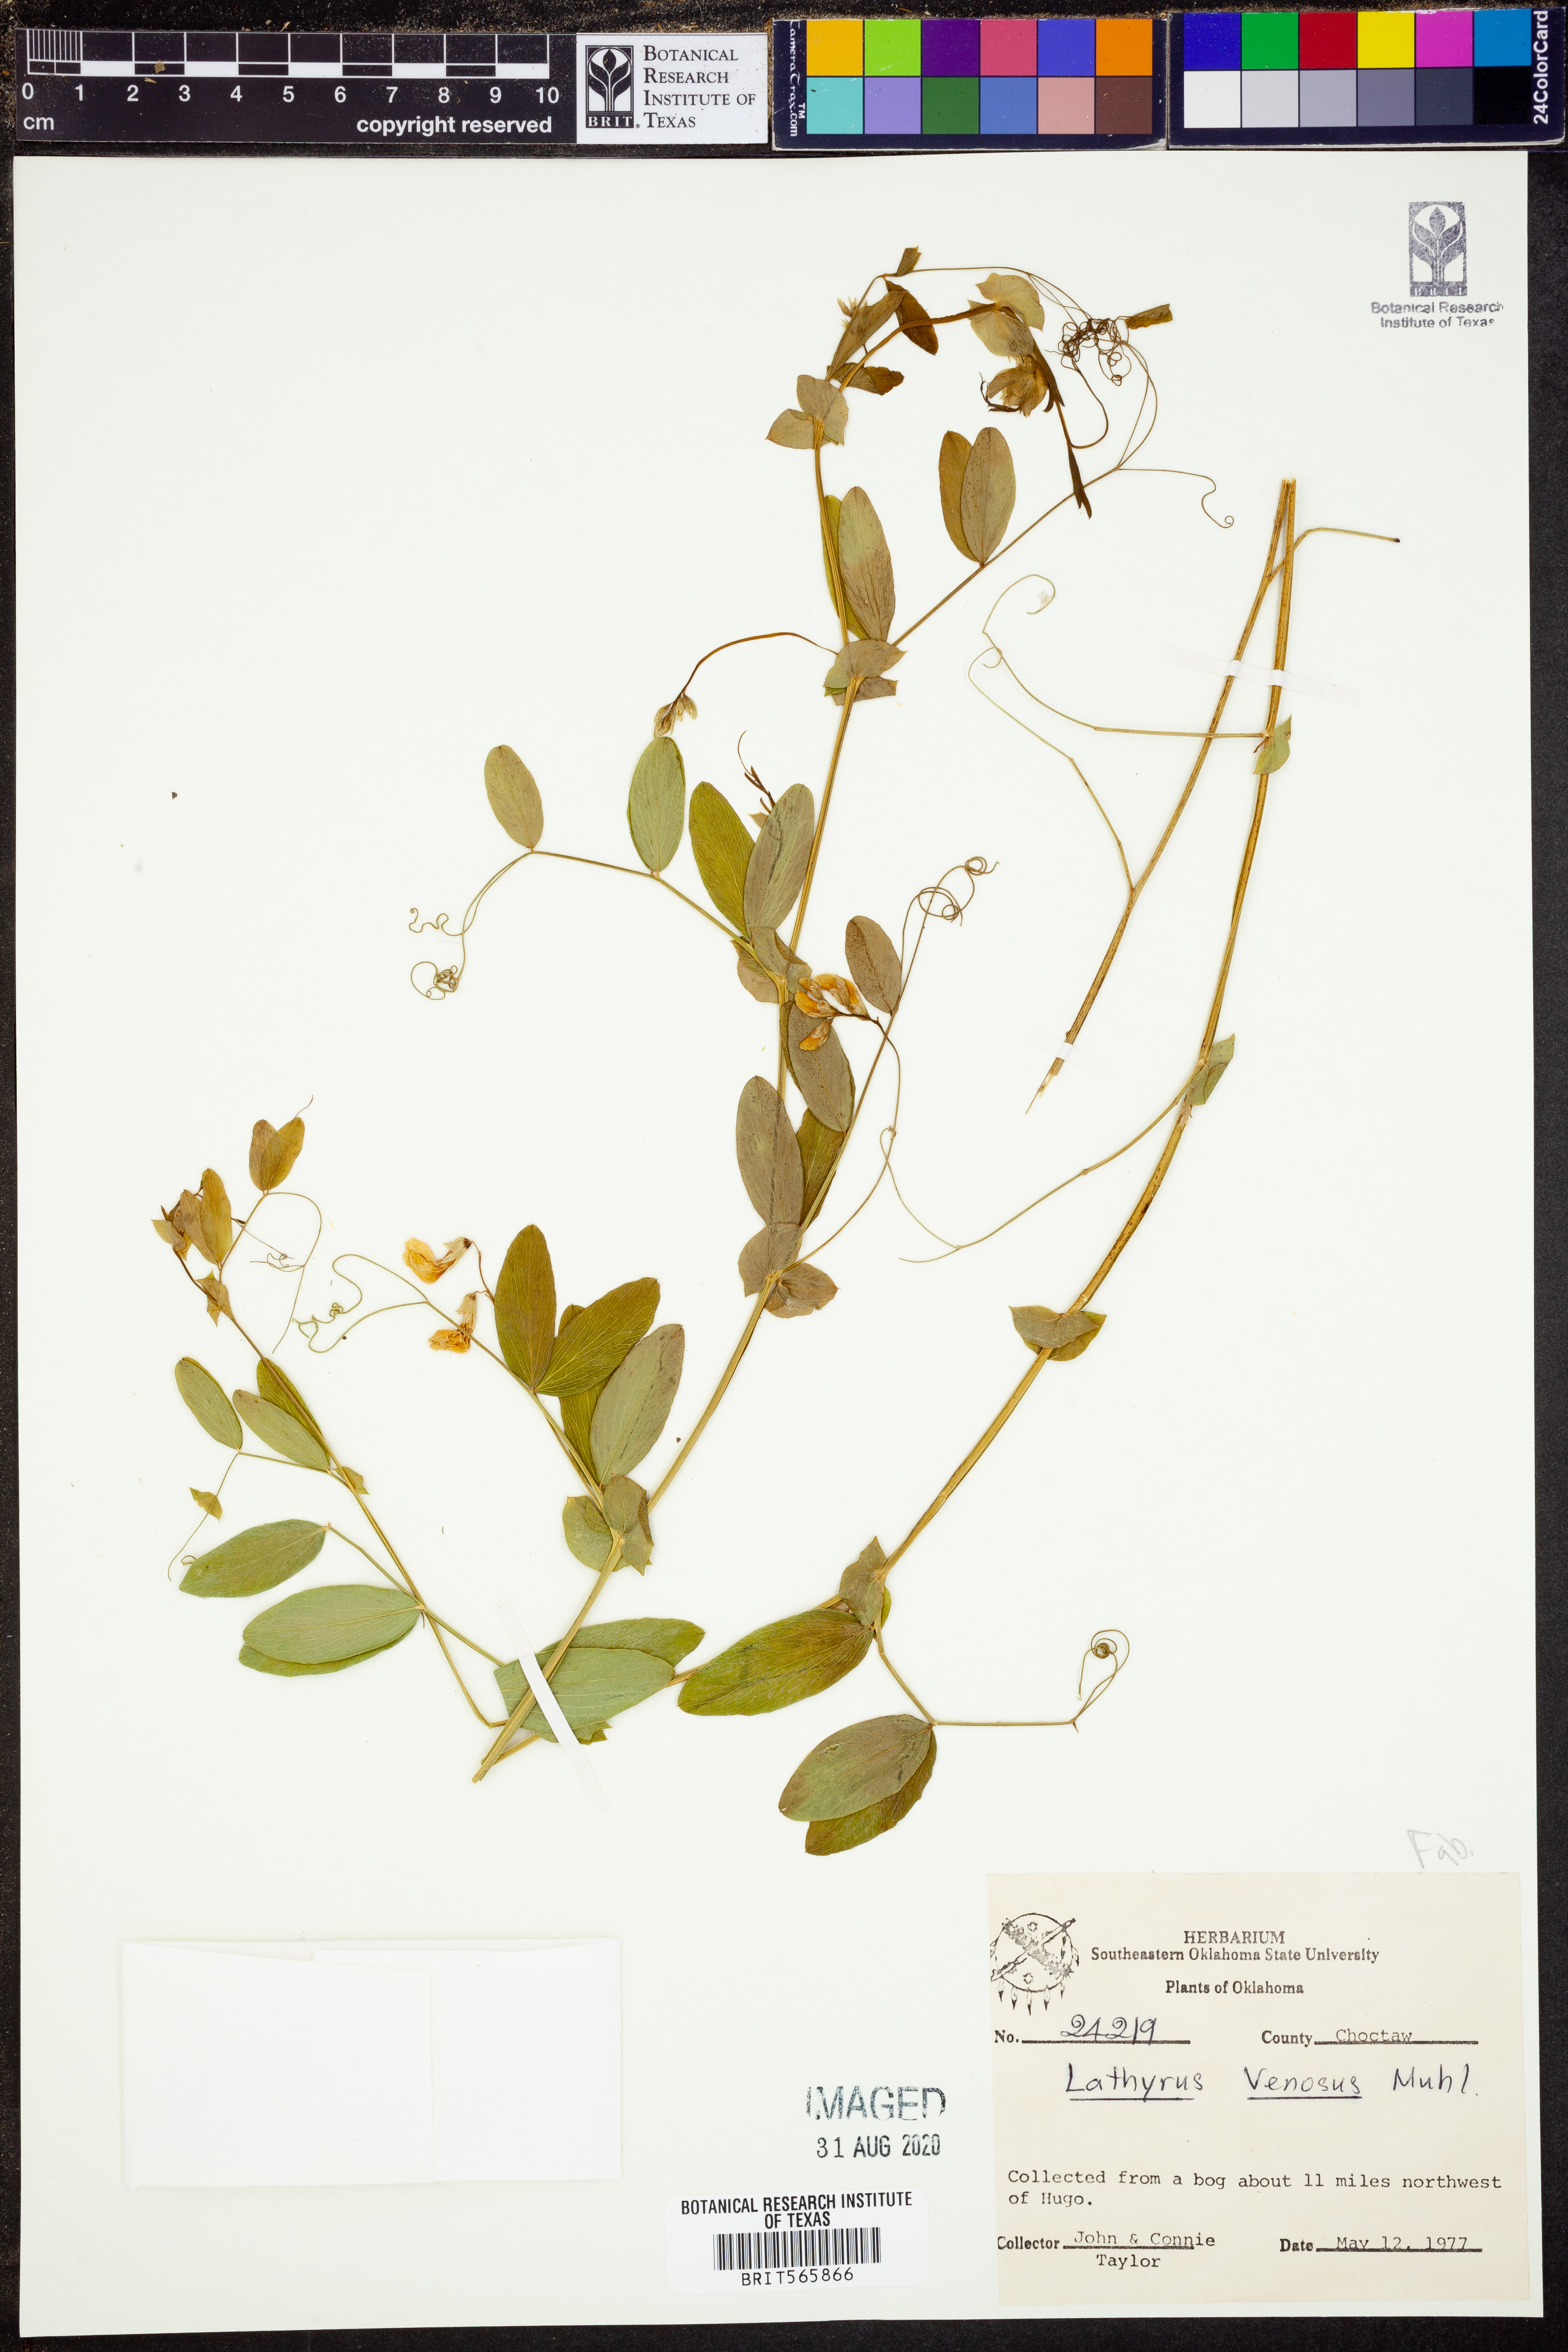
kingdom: Plantae
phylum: Tracheophyta
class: Magnoliopsida
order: Fabales
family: Fabaceae
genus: Lathyrus
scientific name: Lathyrus venosus
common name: Forest-pea
